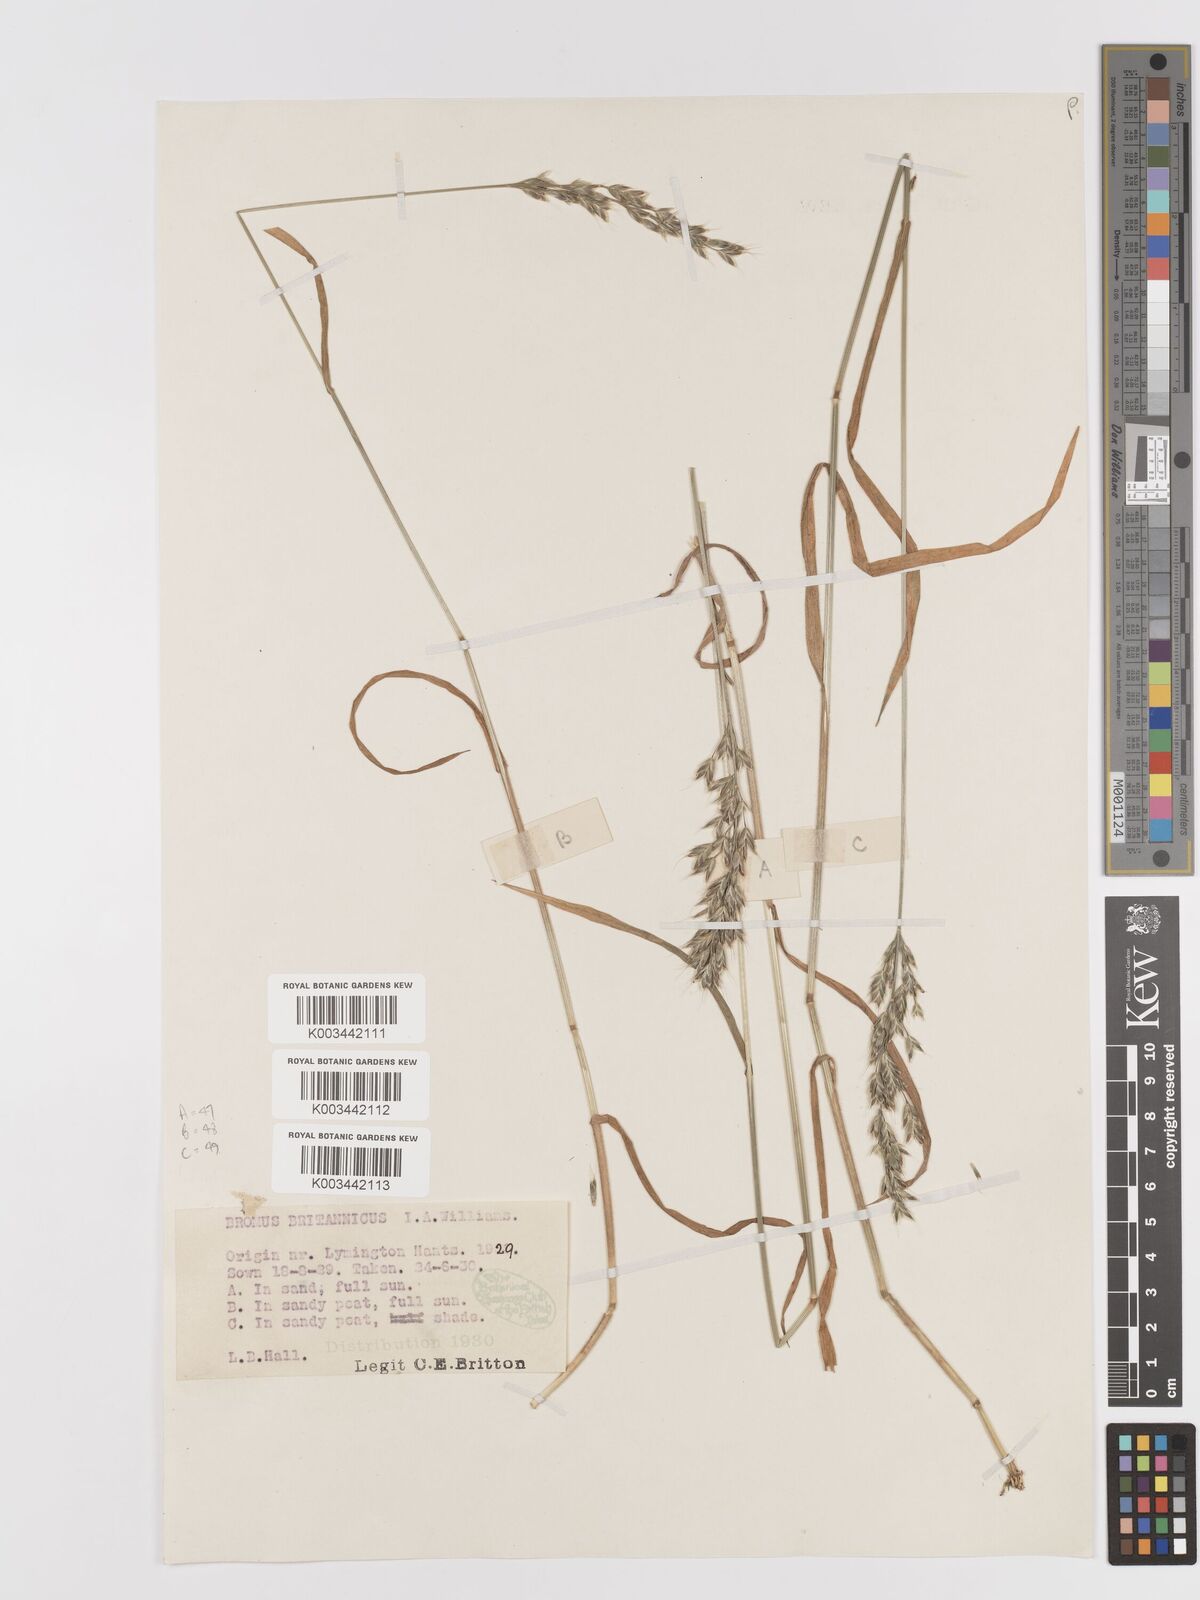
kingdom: Plantae
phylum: Tracheophyta
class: Liliopsida
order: Poales
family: Poaceae
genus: Bromus
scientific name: Bromus lepidus
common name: Slender soft-brome
